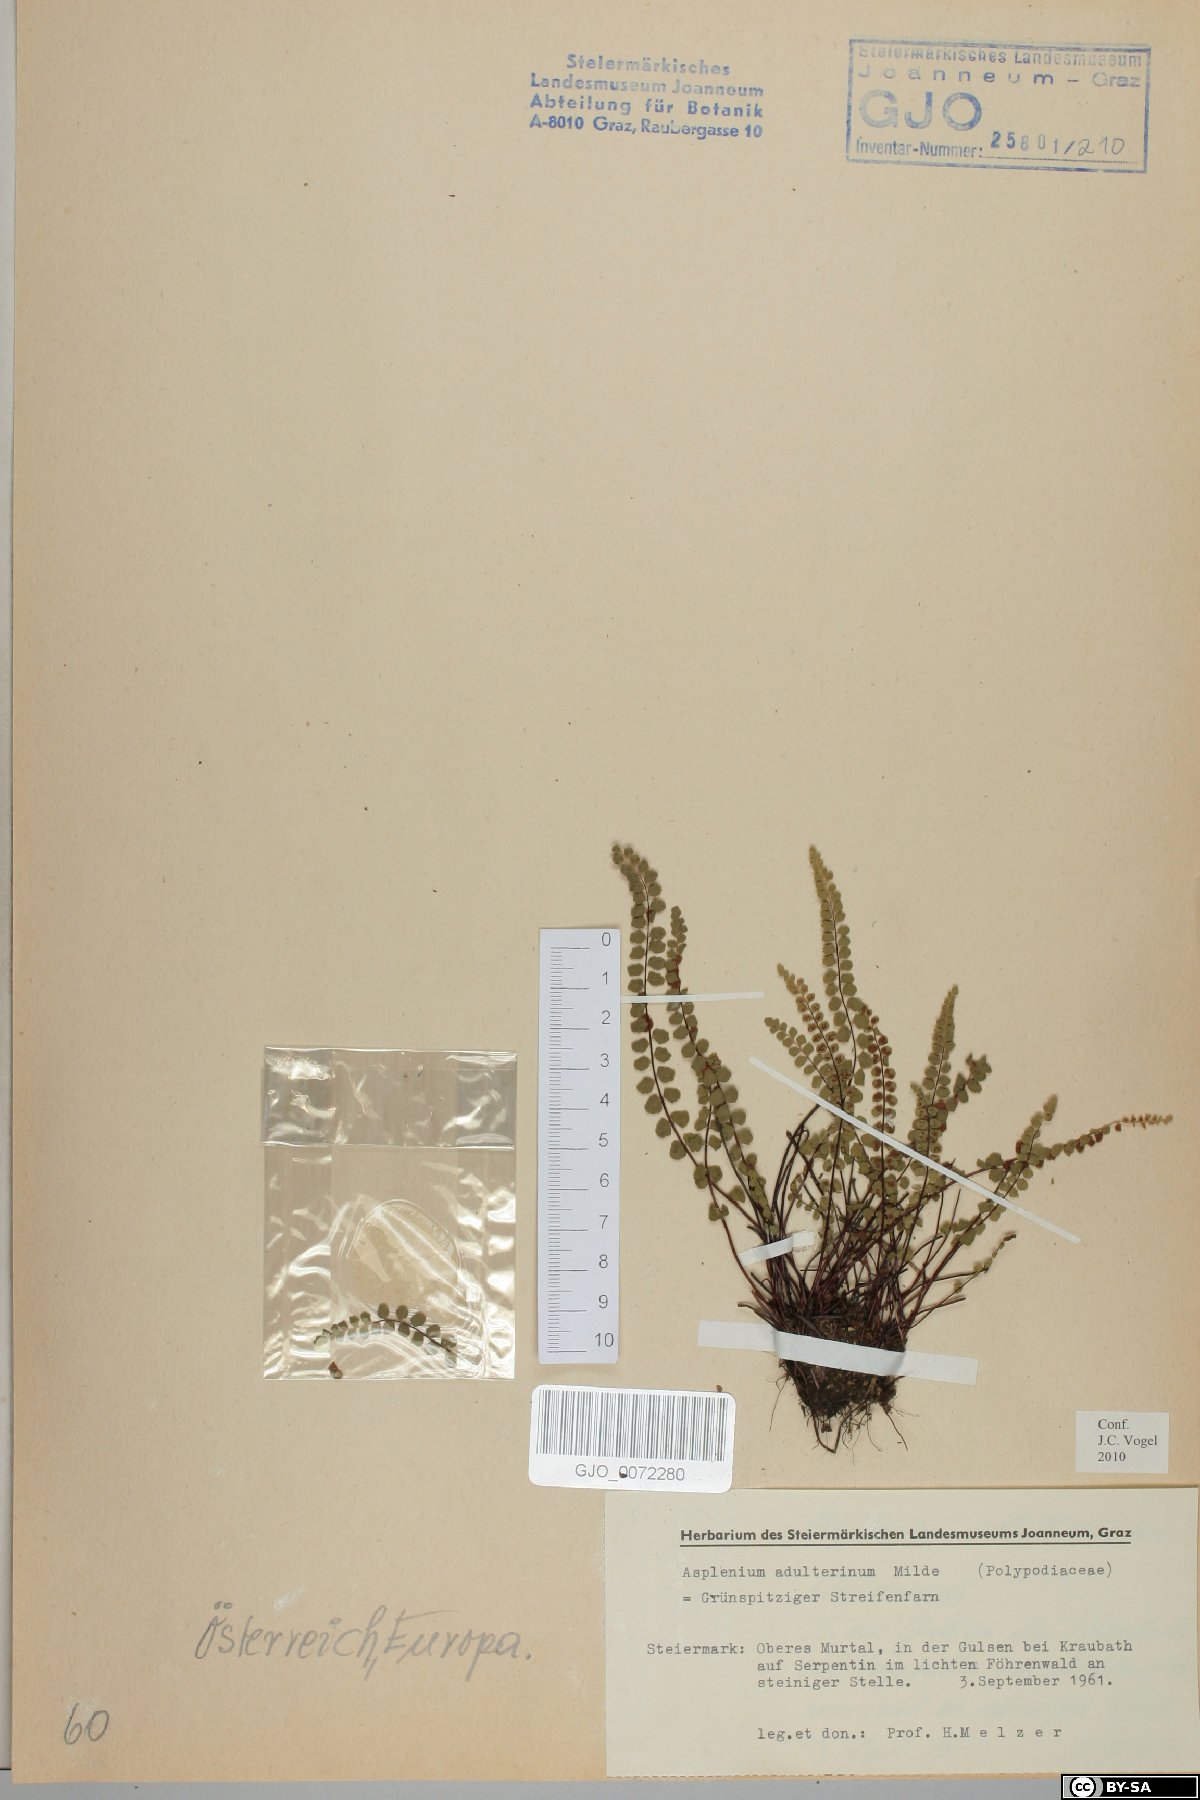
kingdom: Plantae
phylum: Tracheophyta
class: Polypodiopsida
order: Polypodiales
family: Aspleniaceae
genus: Asplenium
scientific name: Asplenium adulterinum
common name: Adulterated spleenwort
